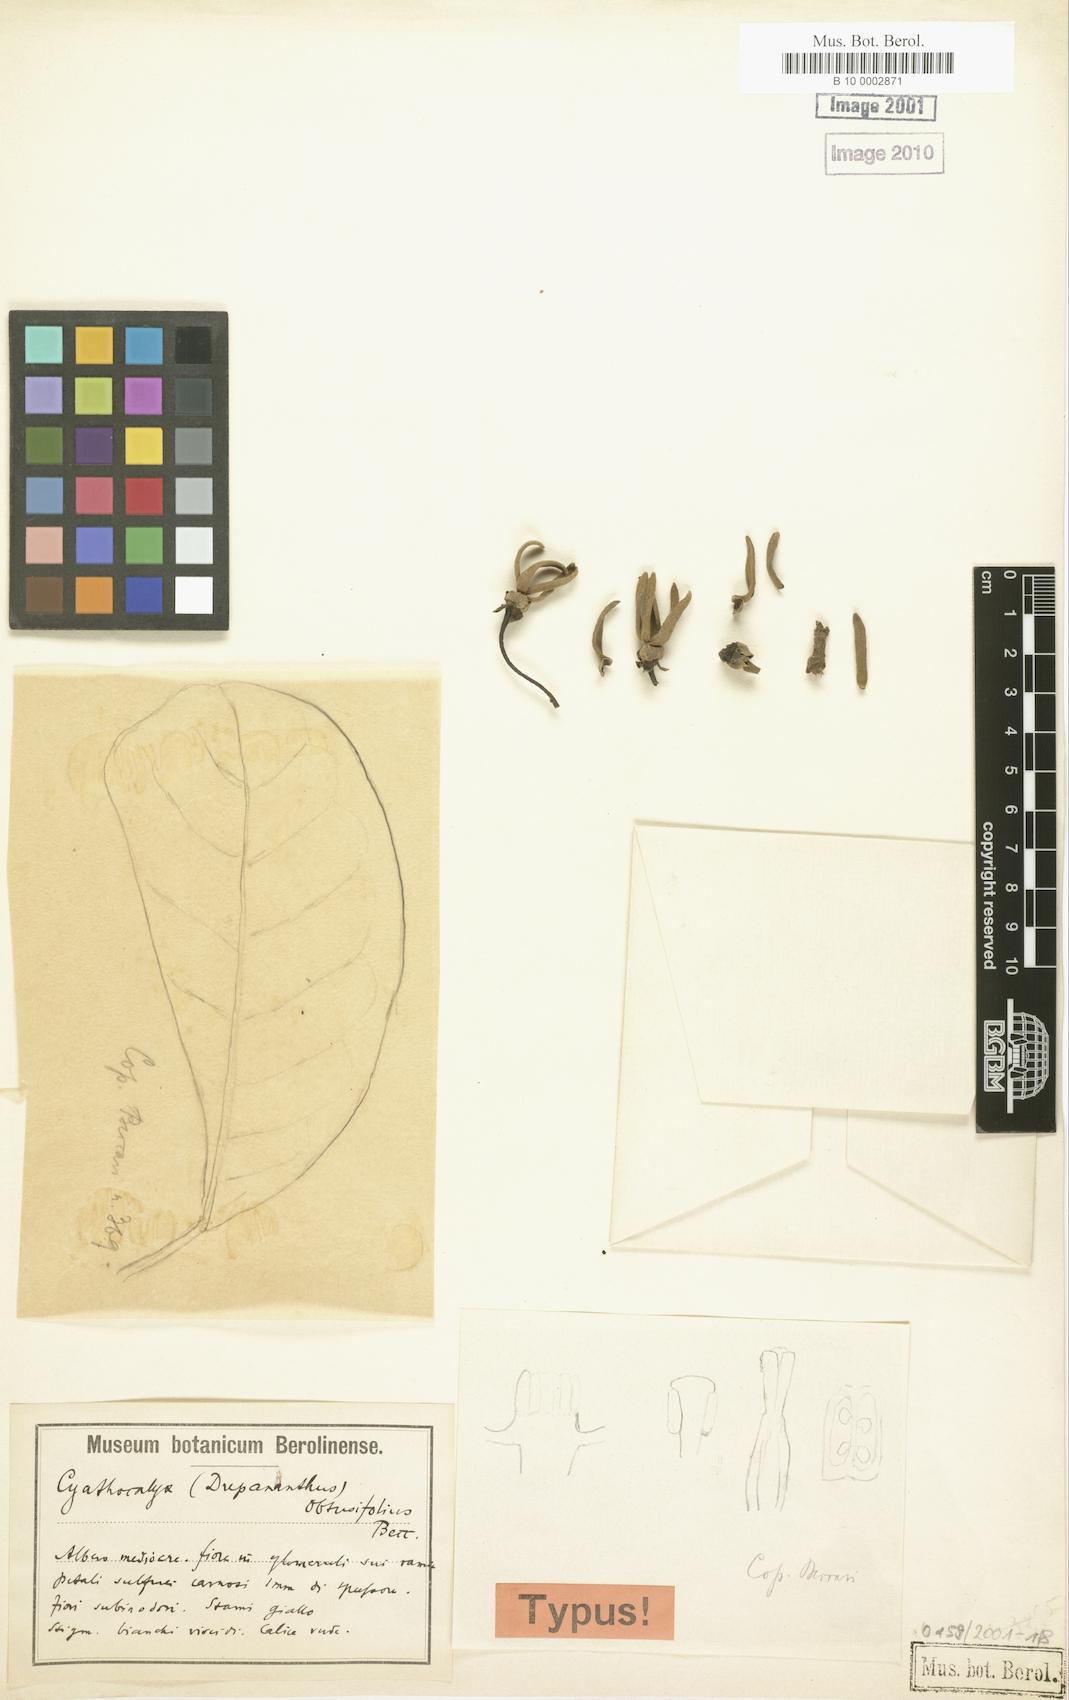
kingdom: Plantae
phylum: Tracheophyta
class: Magnoliopsida
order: Magnoliales
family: Annonaceae
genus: Drepananthus
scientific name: Drepananthus obtusifolius
